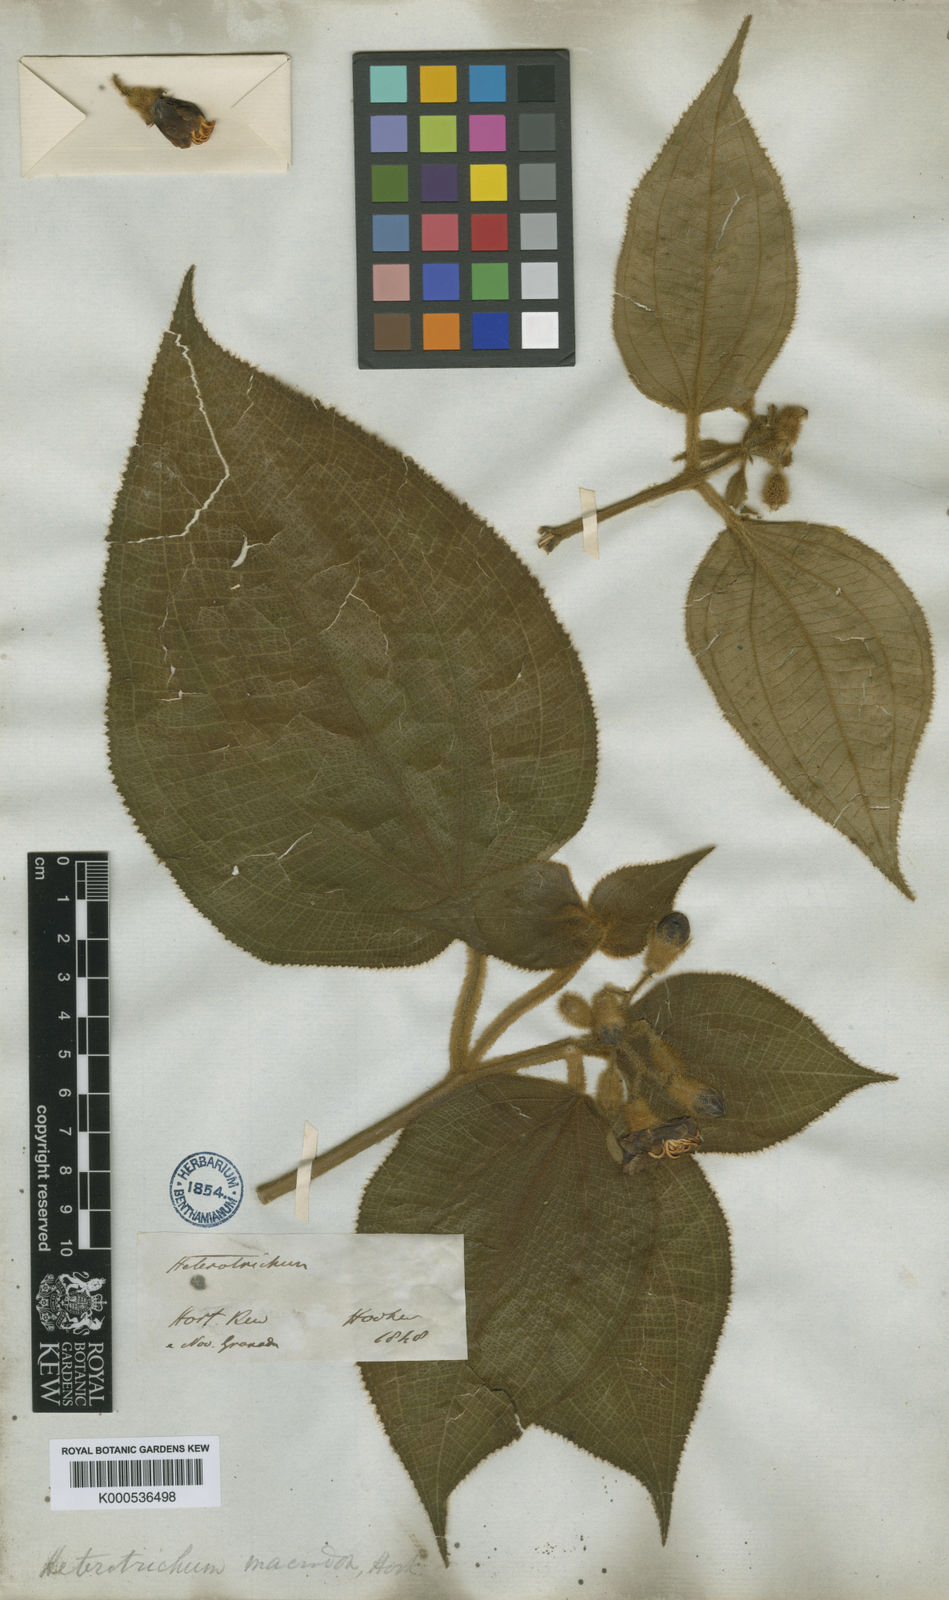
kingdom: Plantae
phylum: Tracheophyta
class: Magnoliopsida
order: Myrtales
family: Melastomataceae
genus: Miconia
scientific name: Miconia macrodon
